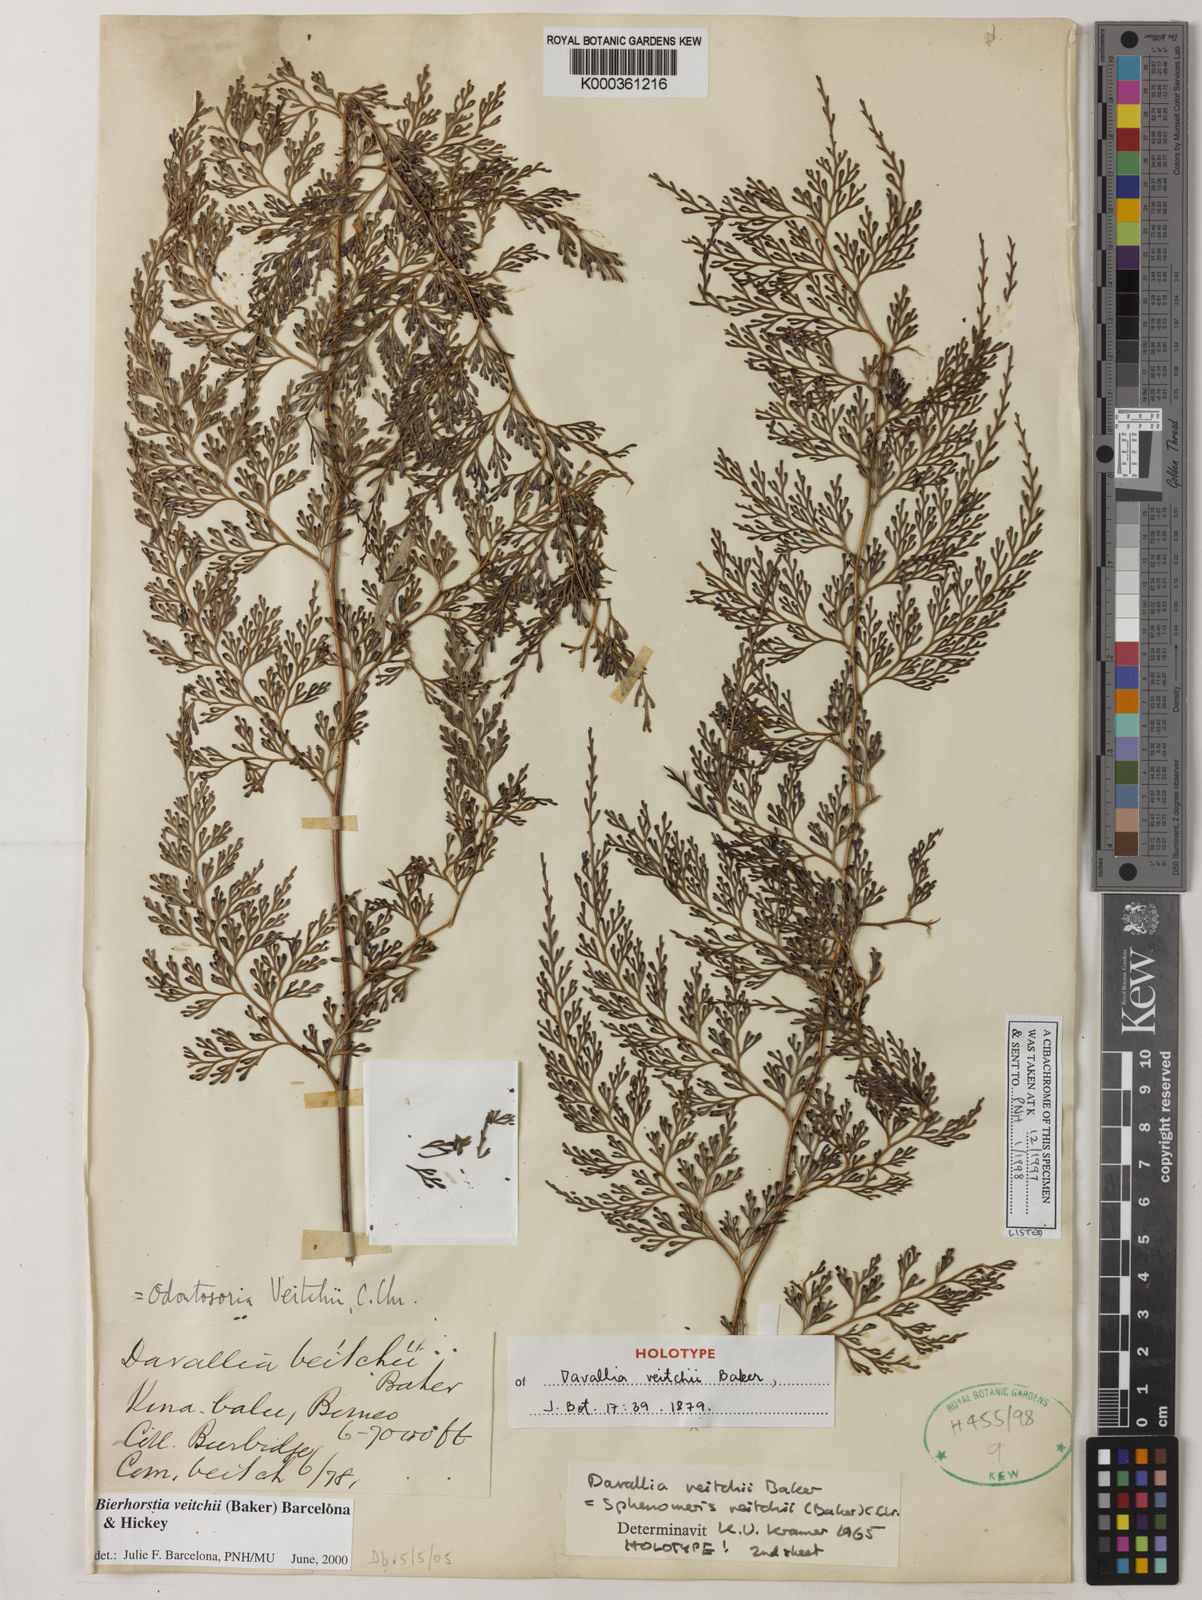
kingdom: Plantae
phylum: Tracheophyta
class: Polypodiopsida
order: Polypodiales
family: Lindsaeaceae
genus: Odontosoria
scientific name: Odontosoria veitchii
